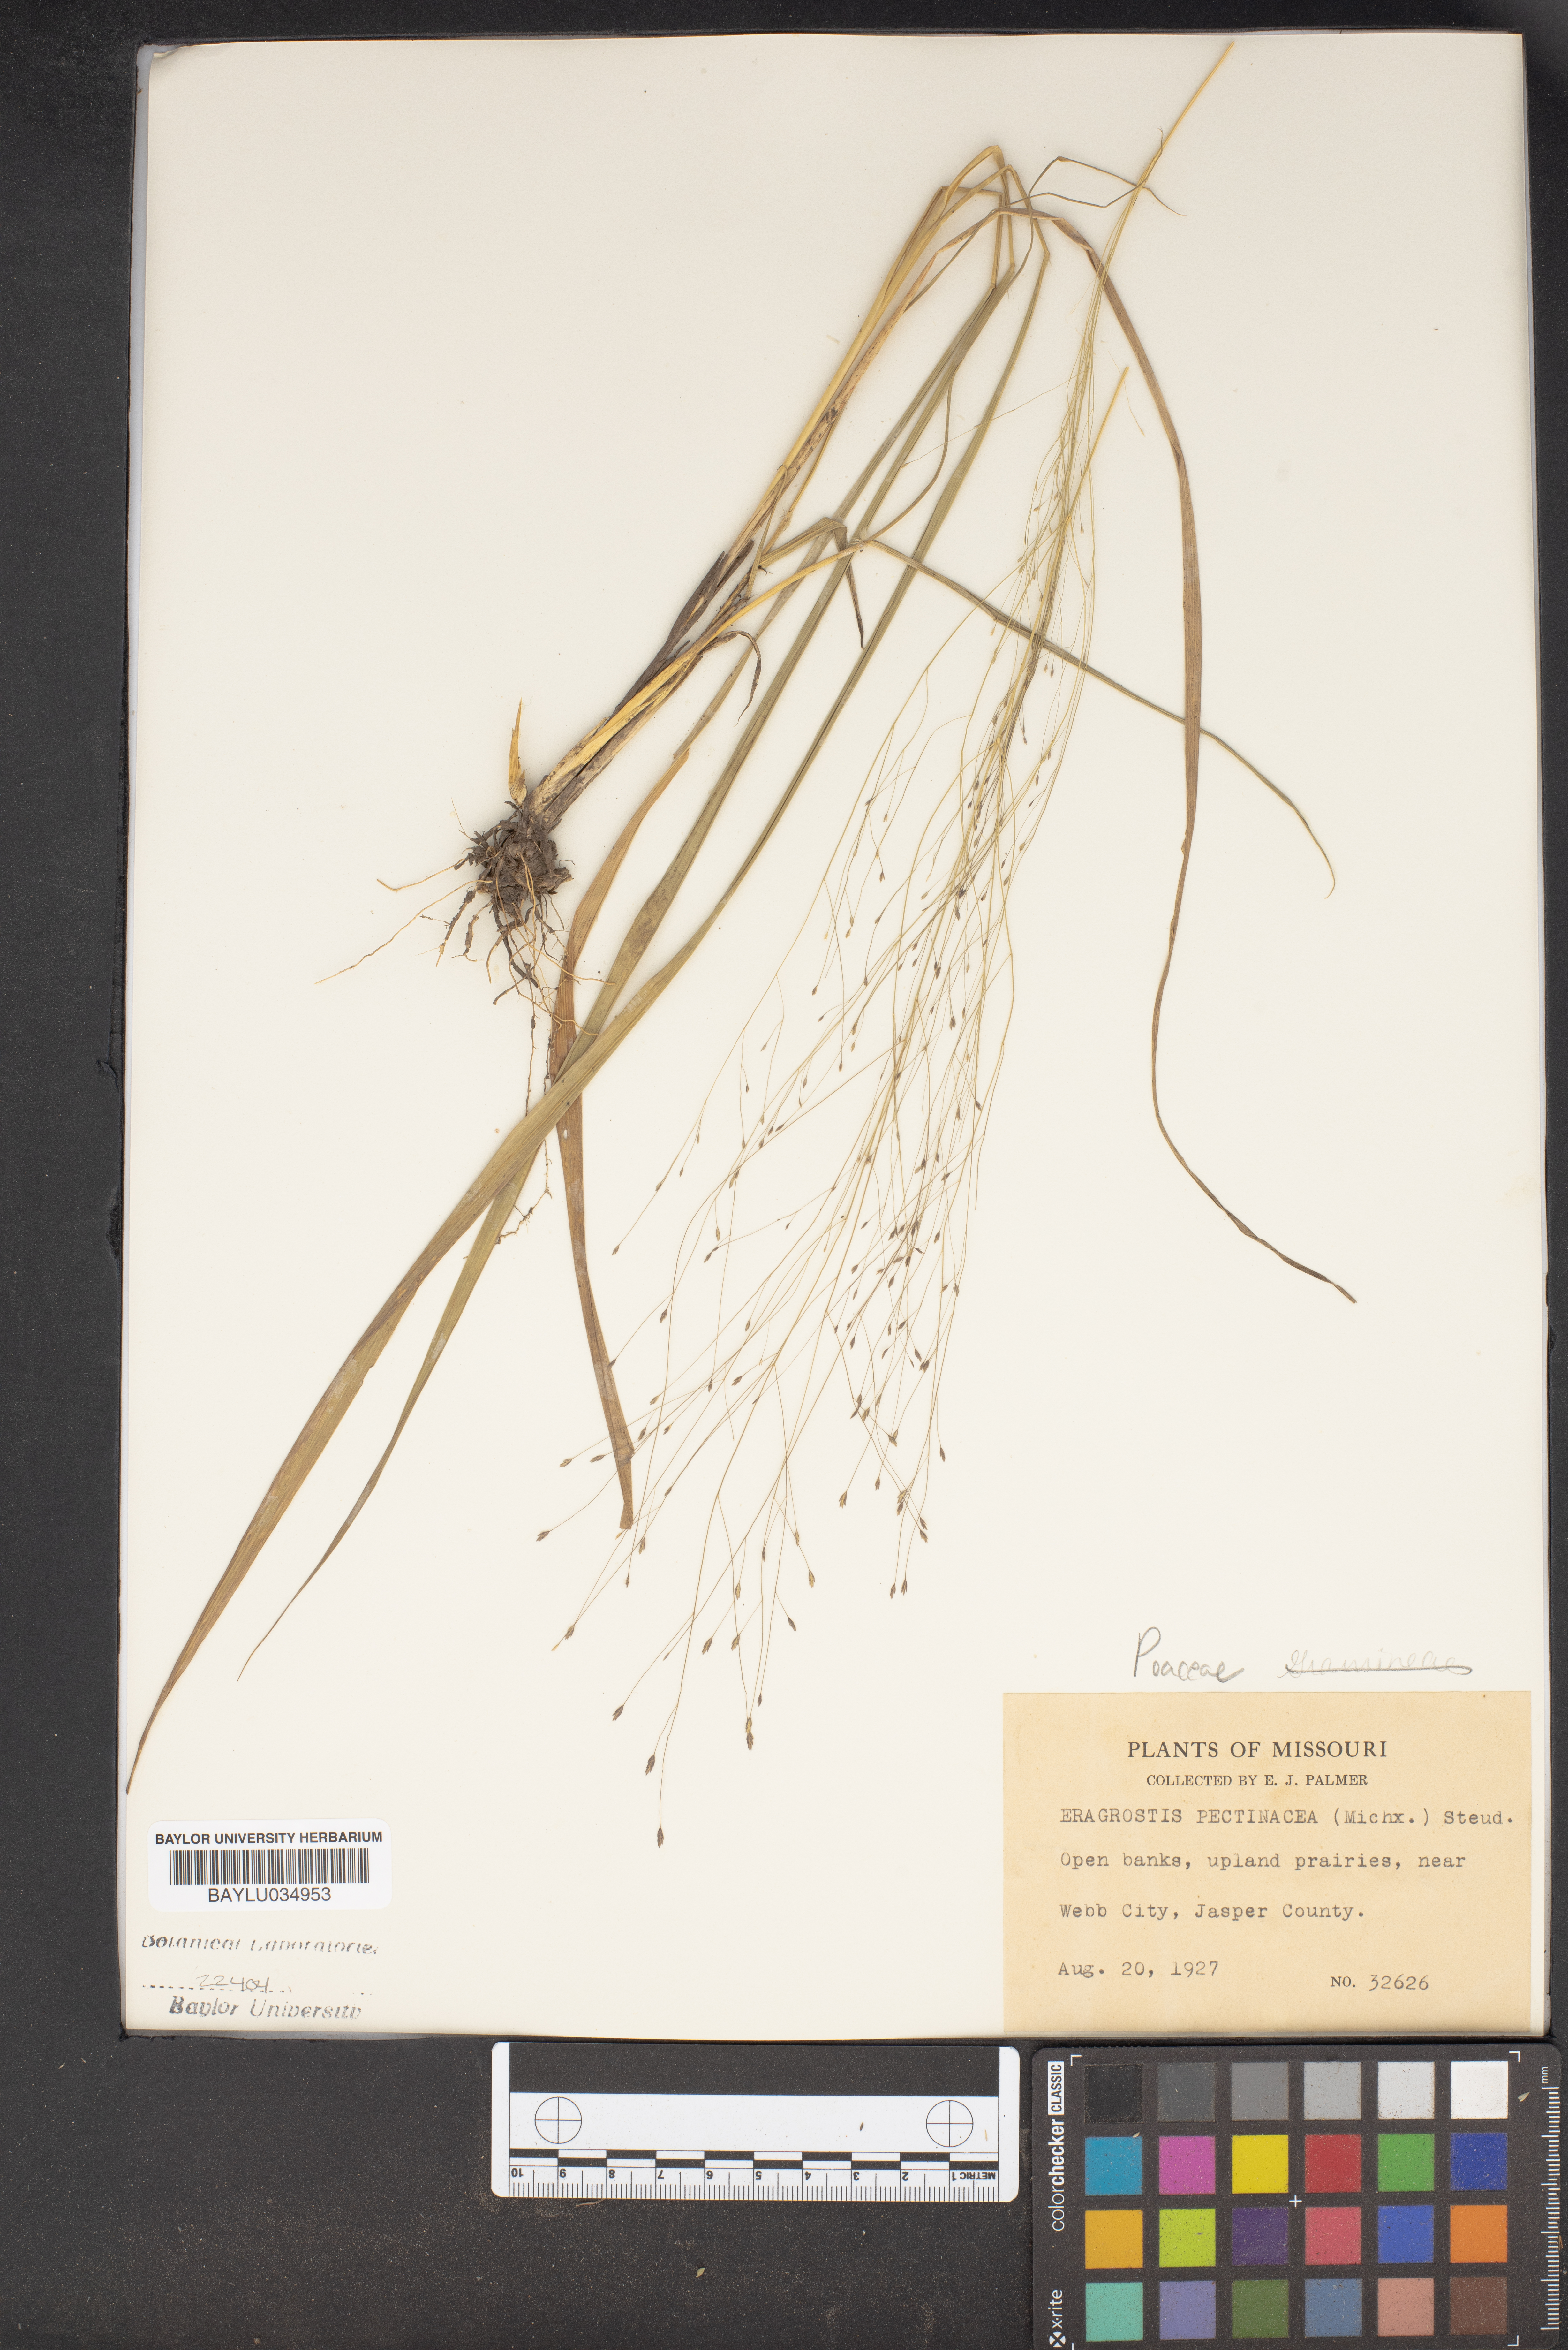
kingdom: Plantae
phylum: Tracheophyta
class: Liliopsida
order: Poales
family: Poaceae
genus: Eragrostis
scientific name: Eragrostis pectinacea
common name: Tufted lovegrass
